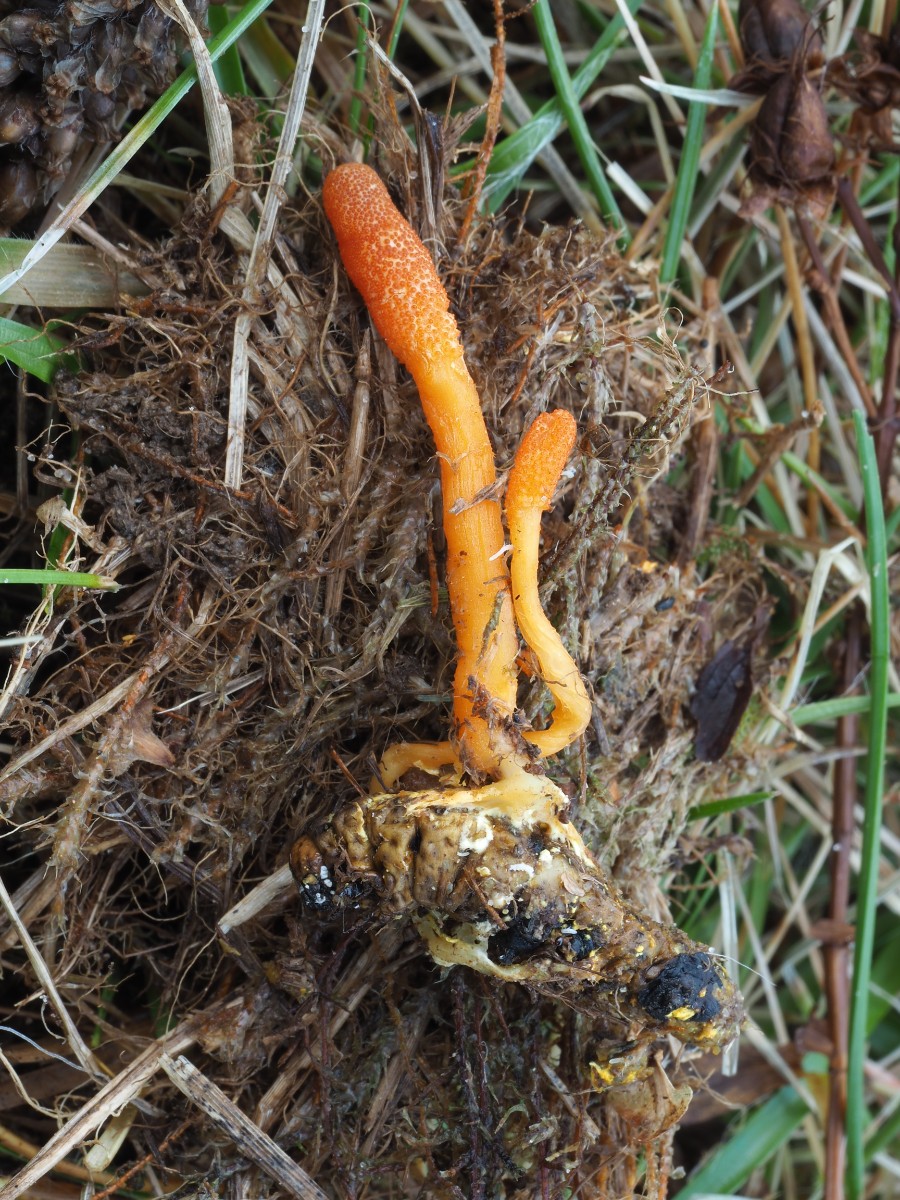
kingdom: Fungi
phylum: Ascomycota
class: Sordariomycetes
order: Hypocreales
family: Cordycipitaceae
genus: Cordyceps
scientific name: Cordyceps militaris
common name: puppe-snyltekølle
